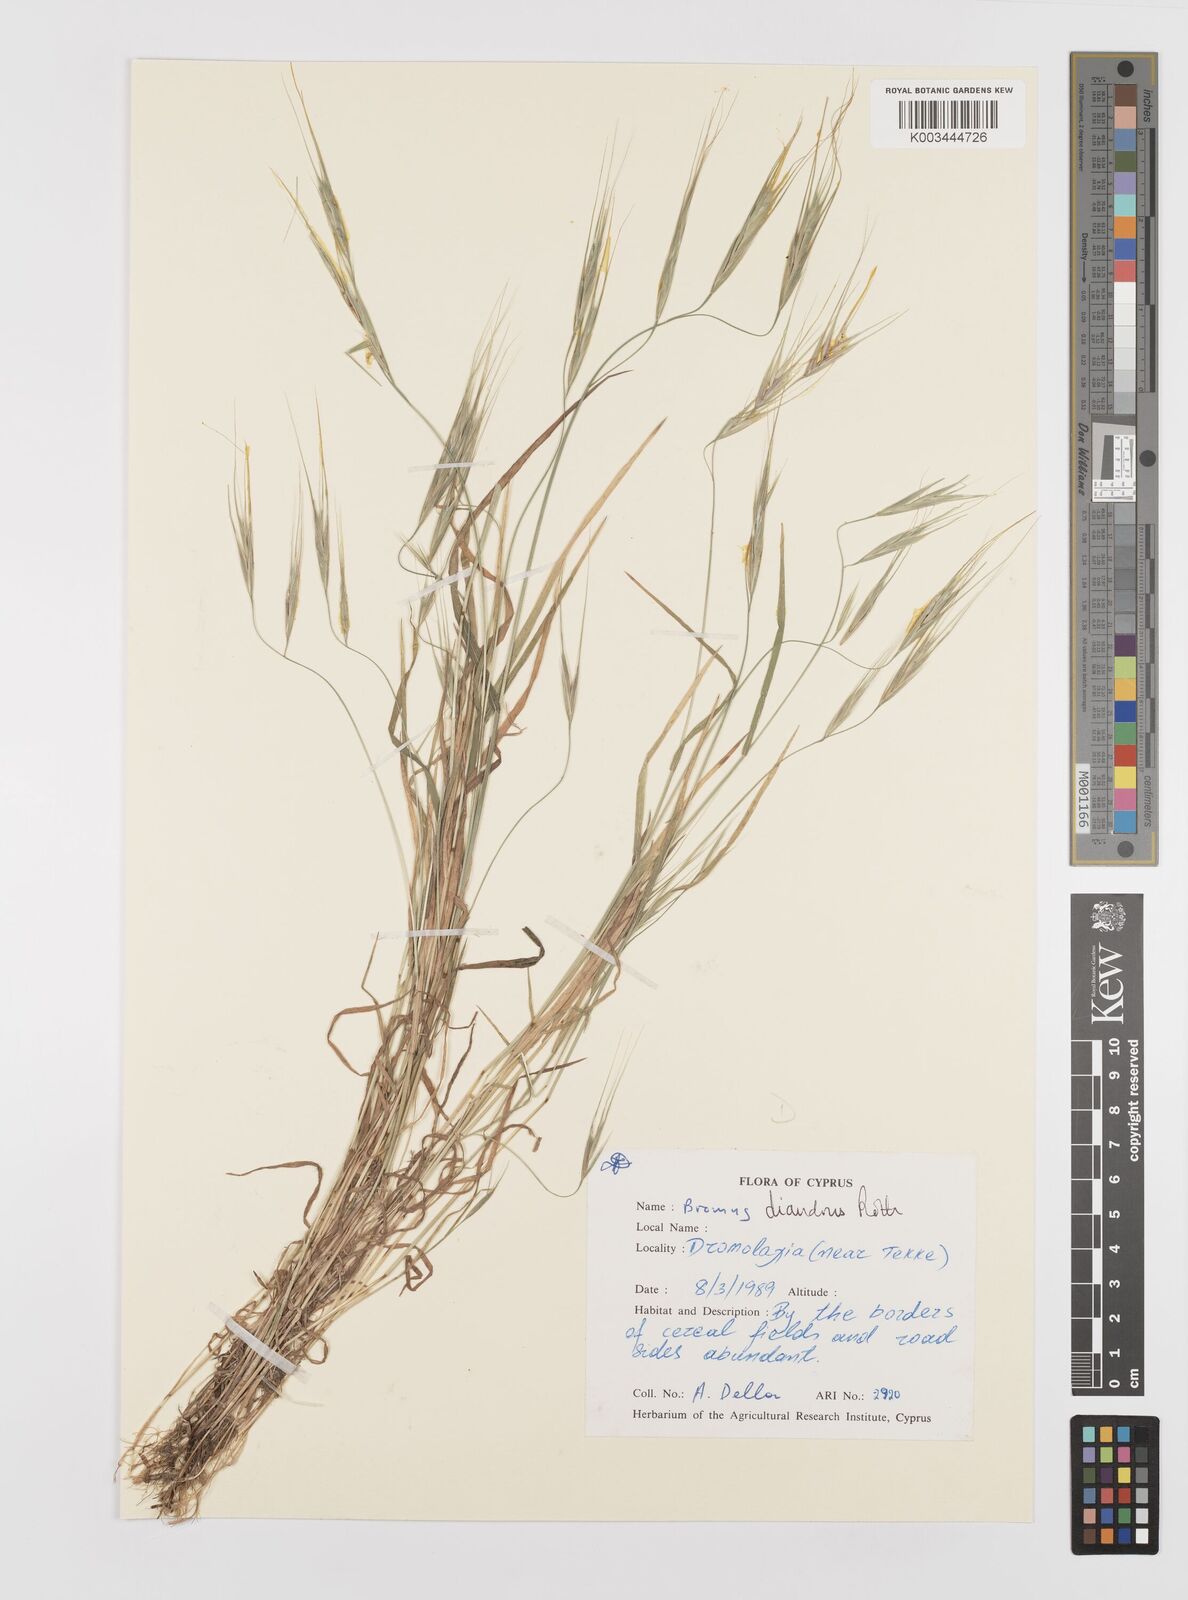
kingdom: Plantae
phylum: Tracheophyta
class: Liliopsida
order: Poales
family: Poaceae
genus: Bromus
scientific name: Bromus diandrus
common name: Ripgut brome
